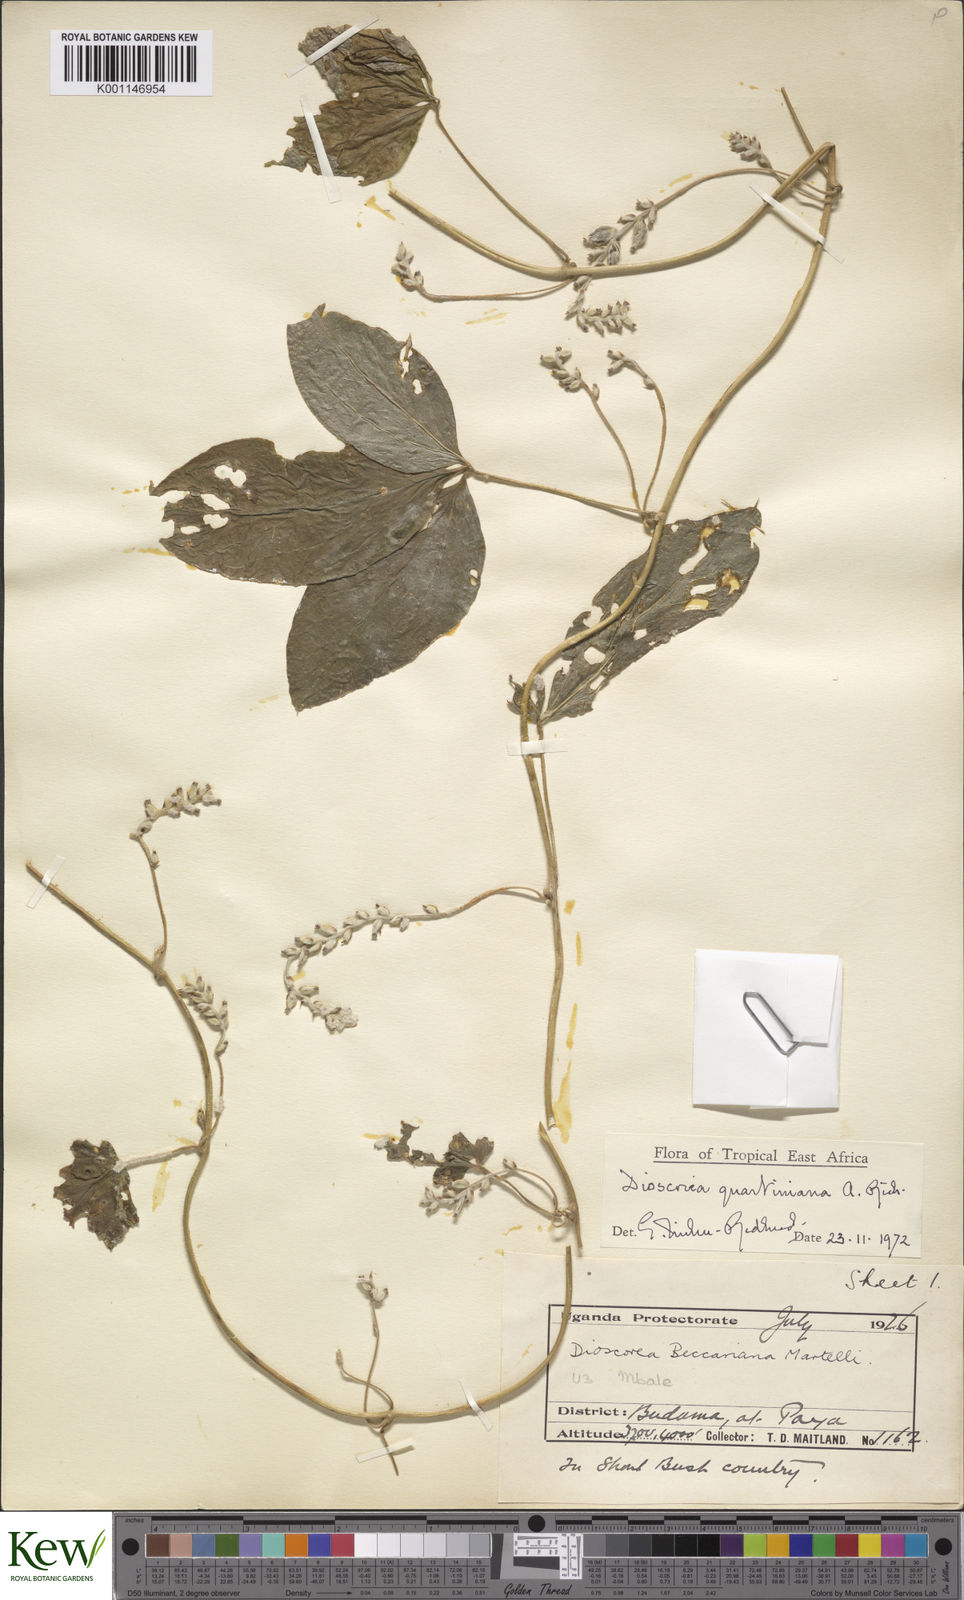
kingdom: Plantae
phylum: Tracheophyta
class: Liliopsida
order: Dioscoreales
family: Dioscoreaceae
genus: Dioscorea
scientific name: Dioscorea quartiniana
